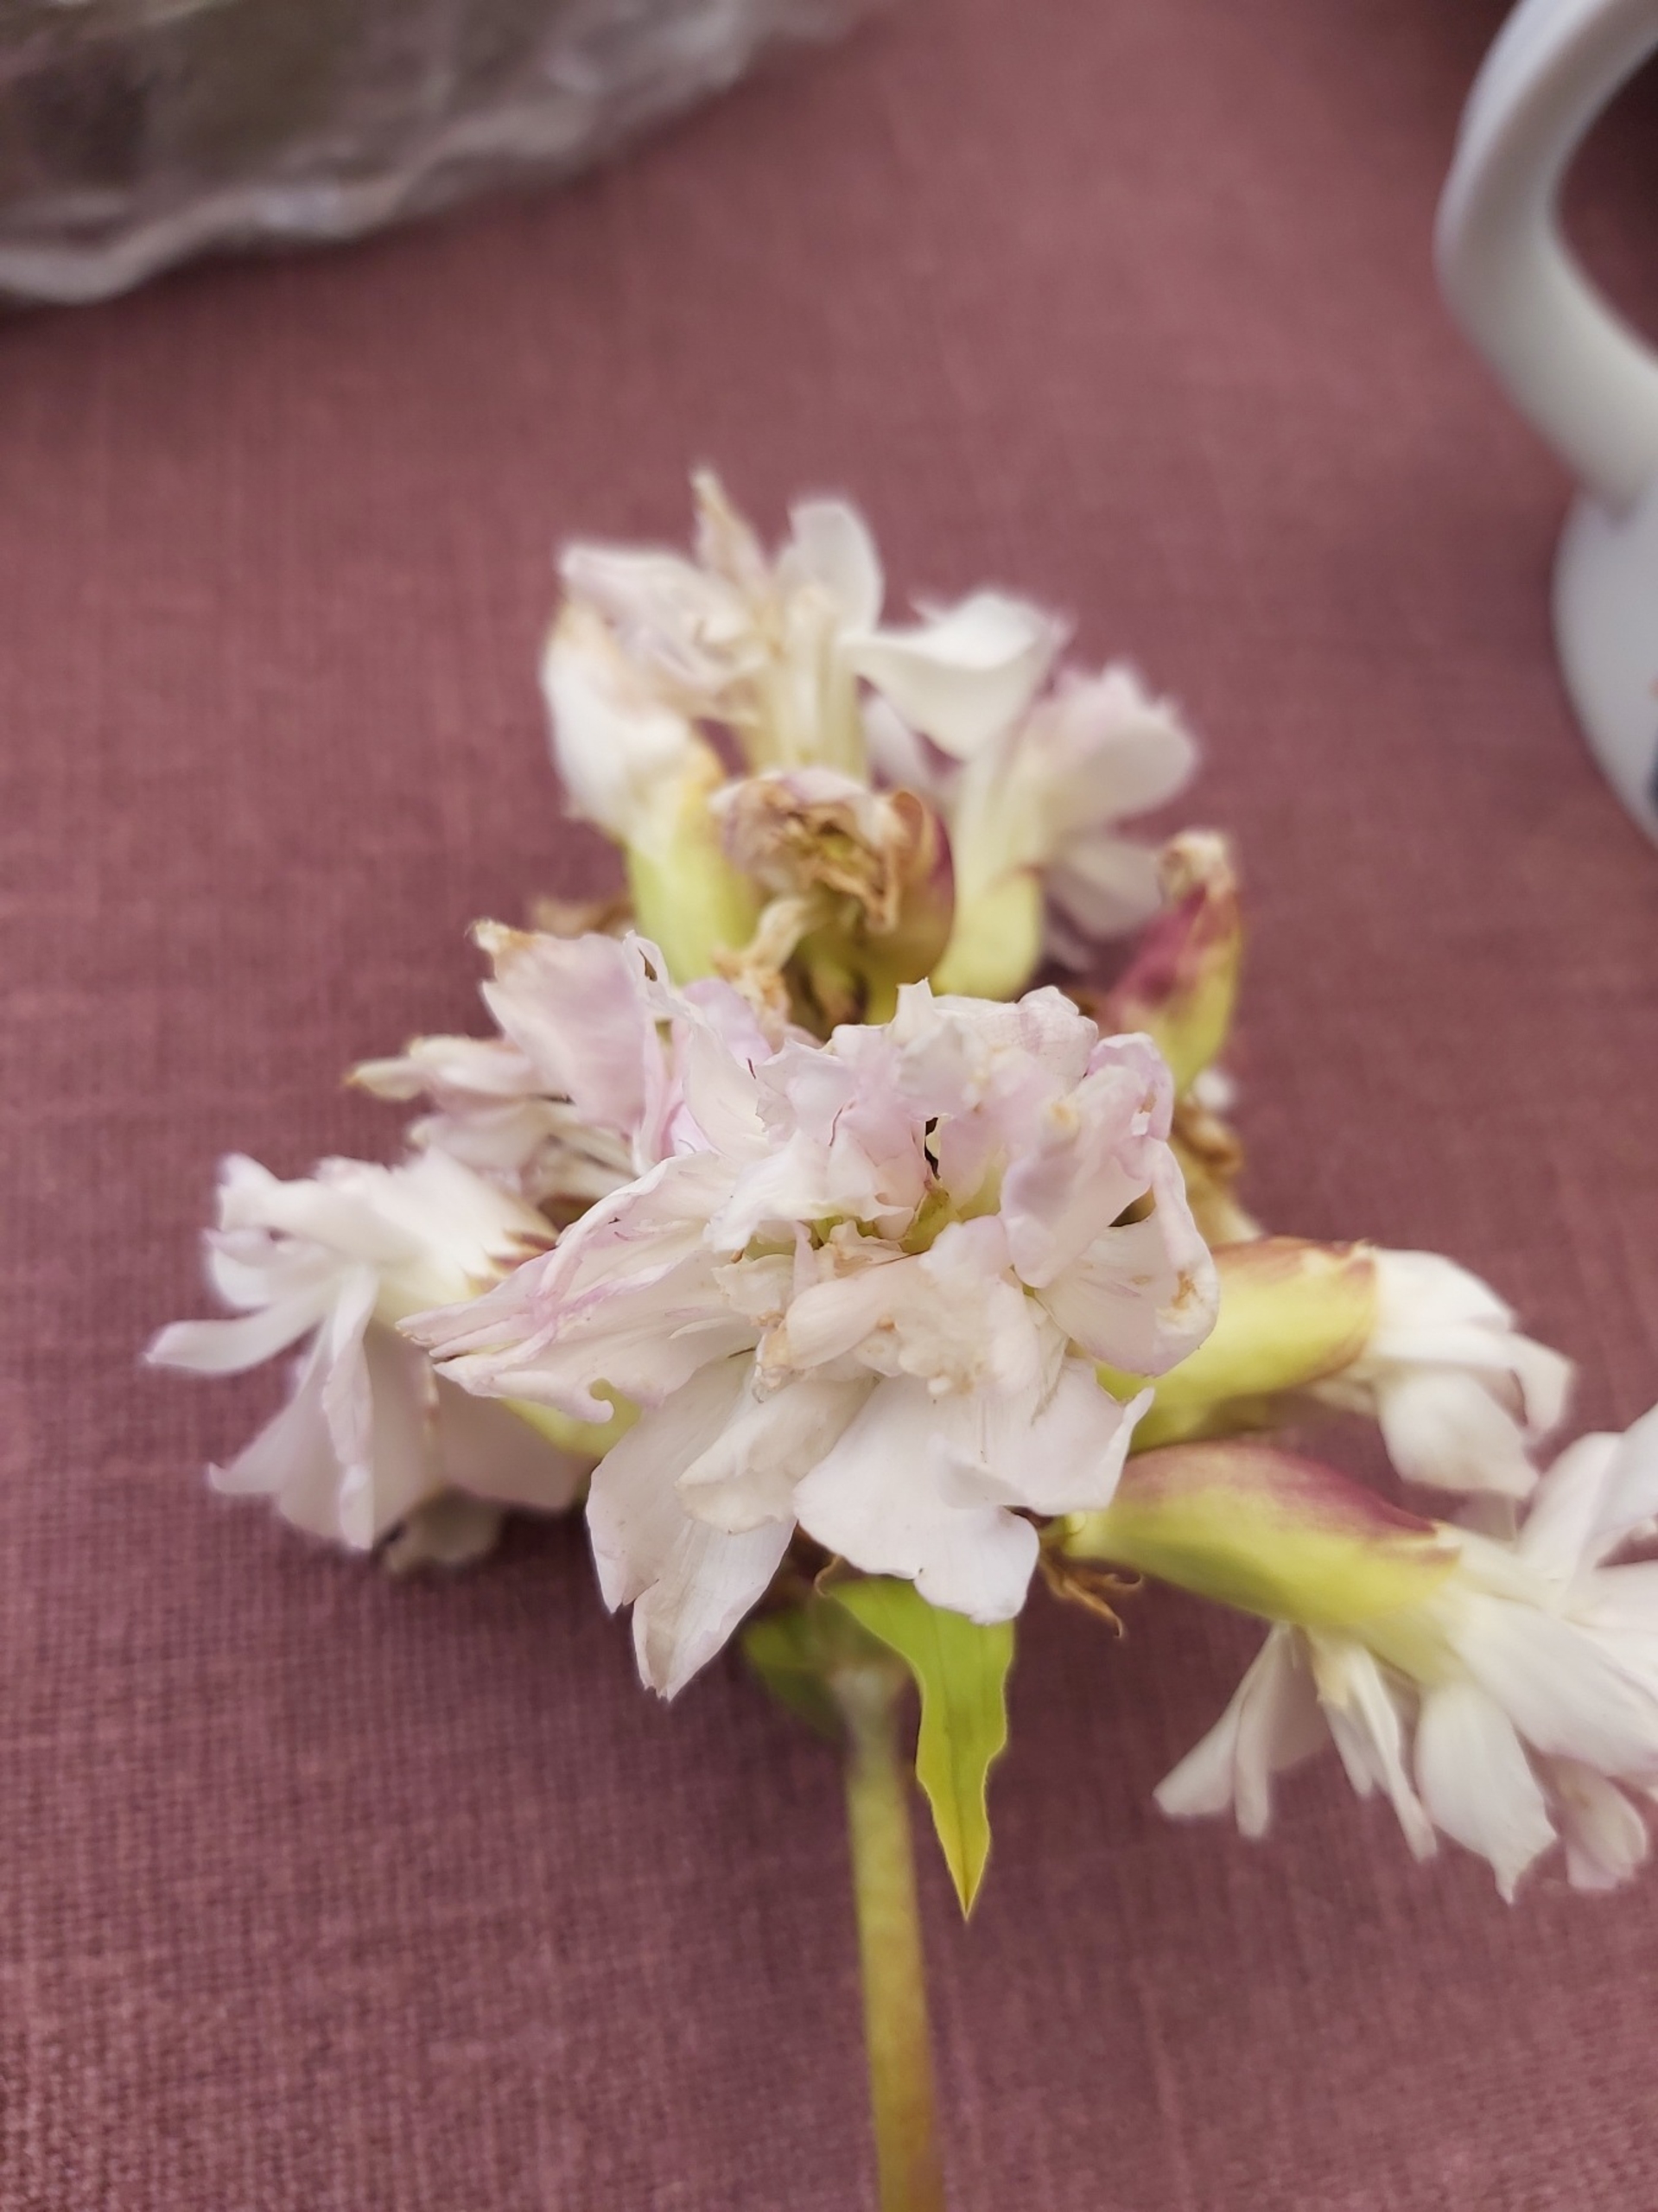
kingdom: Plantae
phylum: Tracheophyta
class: Magnoliopsida
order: Caryophyllales
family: Caryophyllaceae
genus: Saponaria
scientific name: Saponaria officinalis
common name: Sæbeurt
